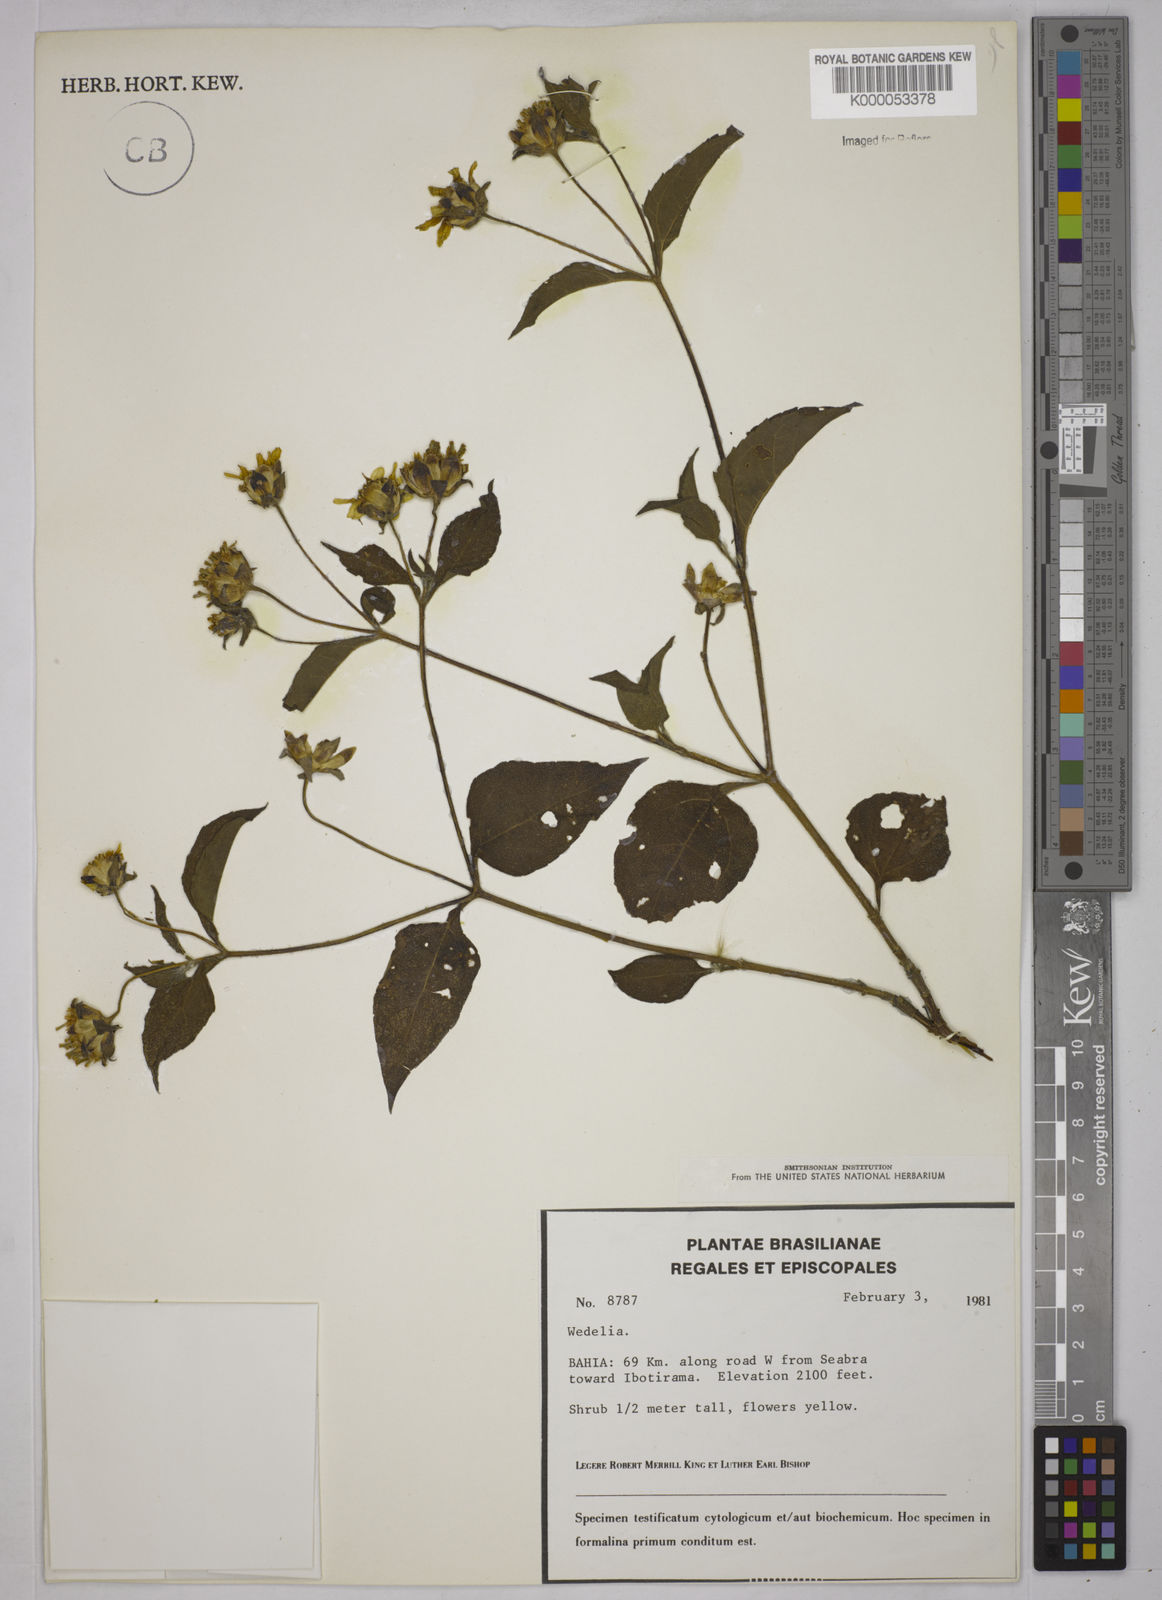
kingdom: Plantae
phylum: Tracheophyta
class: Magnoliopsida
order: Asterales
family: Asteraceae
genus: Wedelia
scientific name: Wedelia alagoensis
